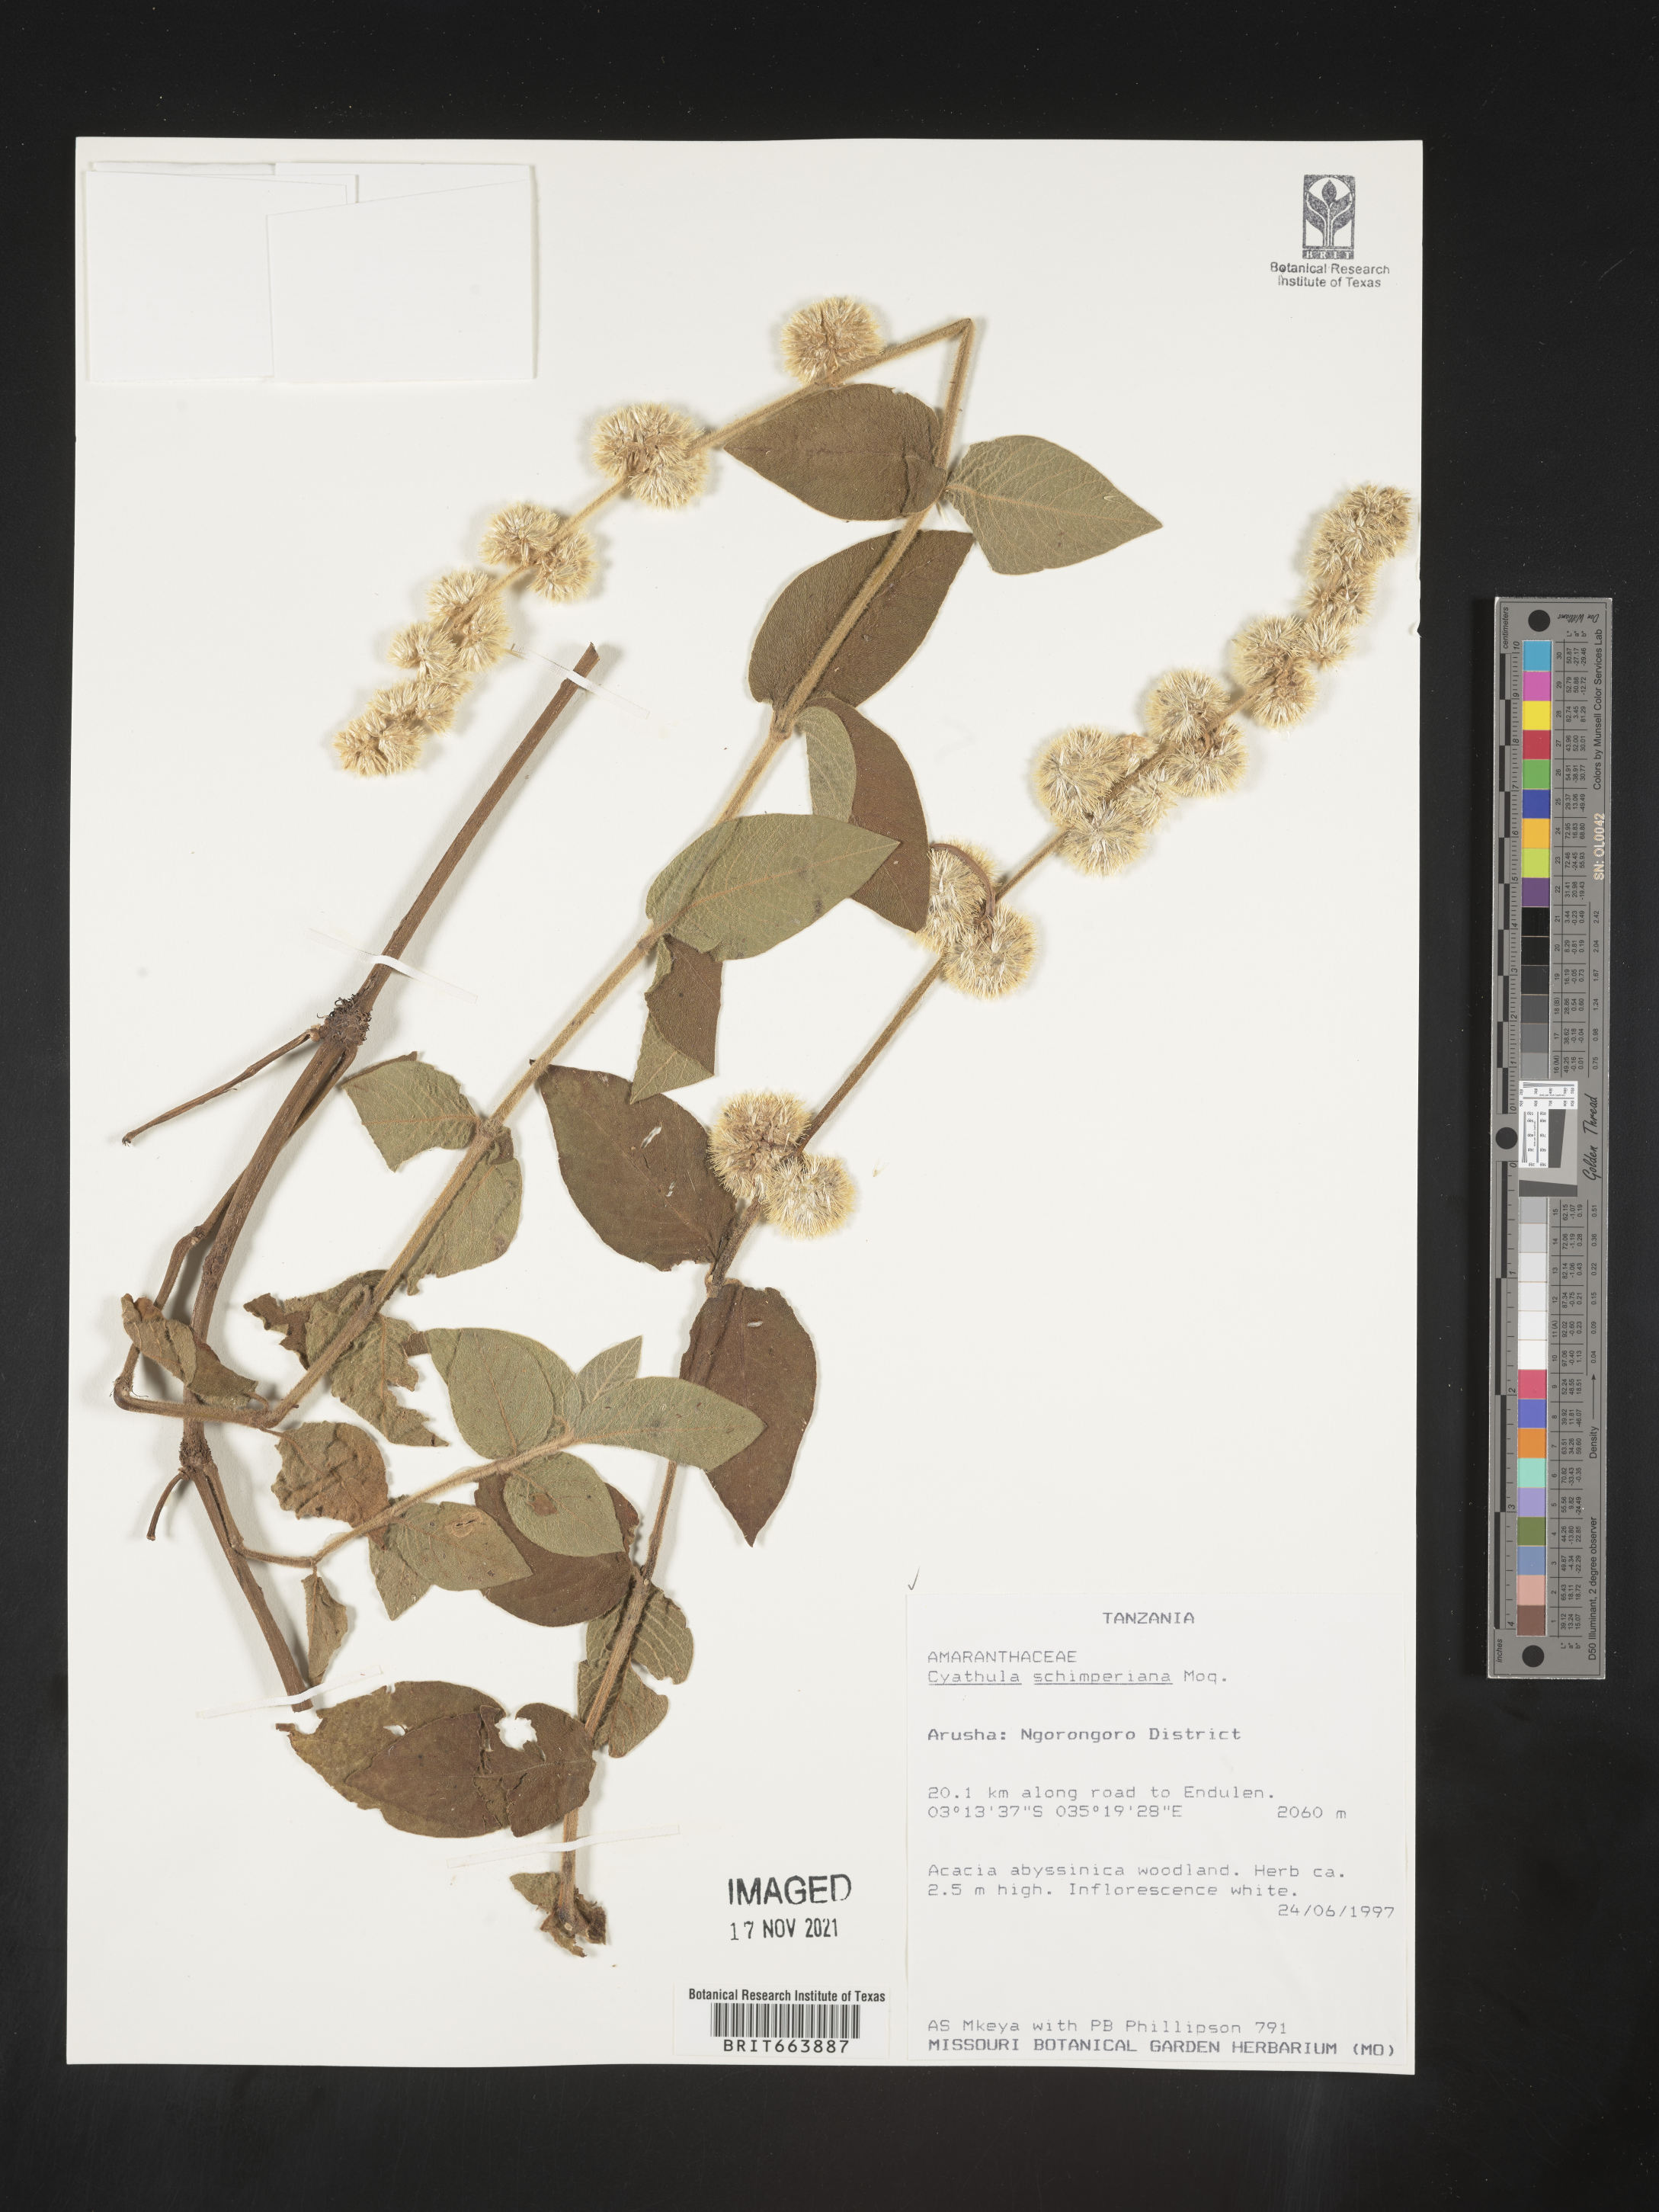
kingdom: Plantae
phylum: Tracheophyta
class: Magnoliopsida
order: Caryophyllales
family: Amaranthaceae
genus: Cyathula
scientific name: Cyathula
